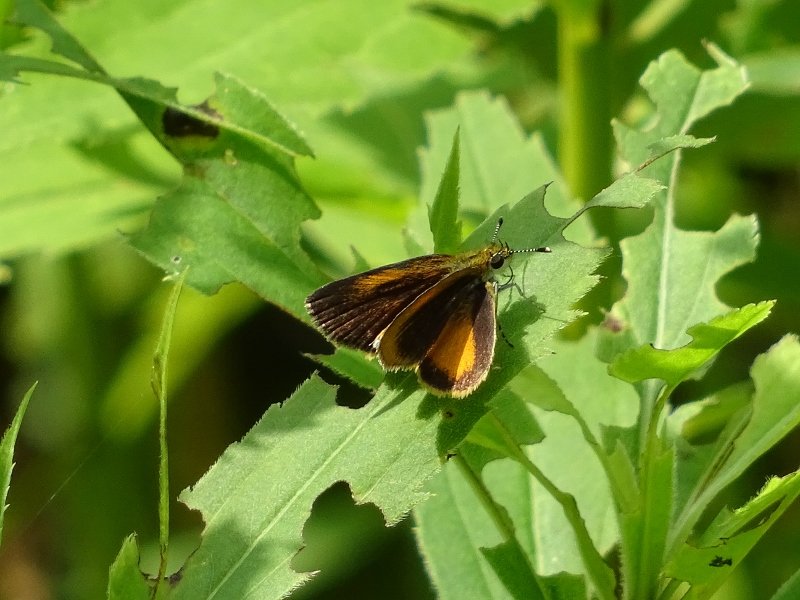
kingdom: Animalia
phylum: Arthropoda
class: Insecta
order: Lepidoptera
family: Hesperiidae
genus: Ancyloxypha
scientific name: Ancyloxypha numitor
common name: Least Skipper
